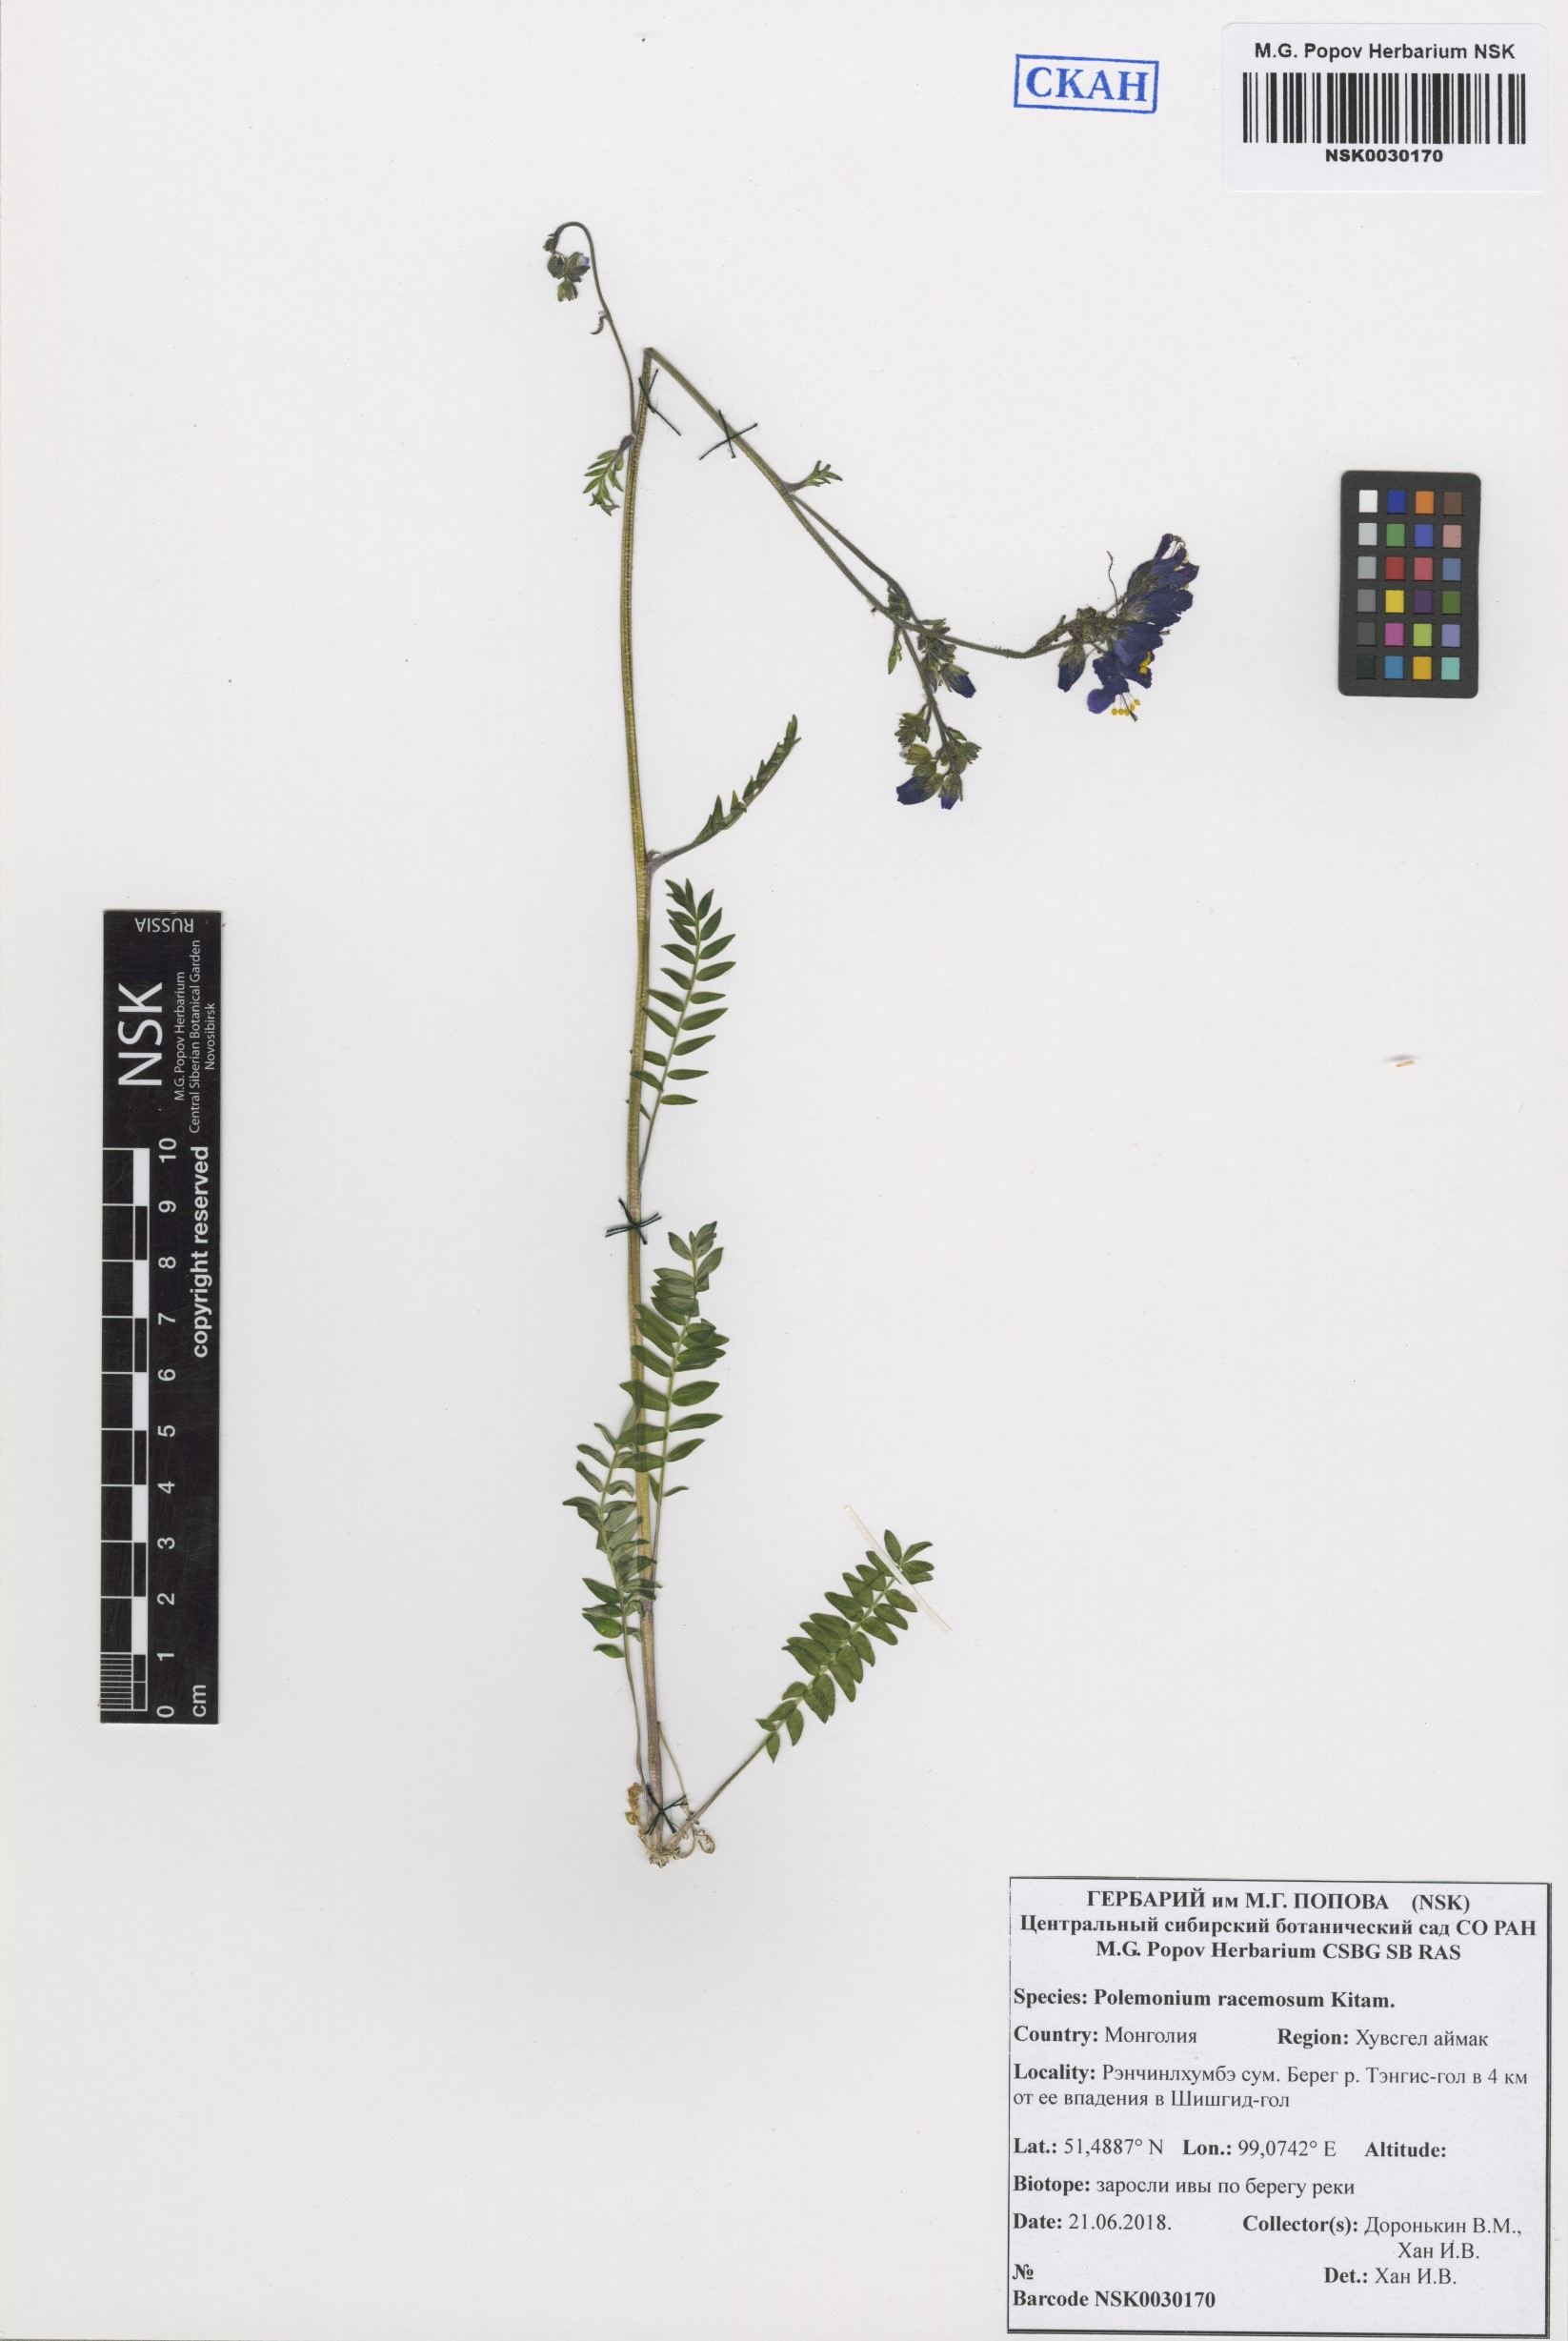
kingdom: Plantae
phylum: Tracheophyta
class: Magnoliopsida
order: Ericales
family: Polemoniaceae
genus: Polemonium
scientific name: Polemonium villosum
